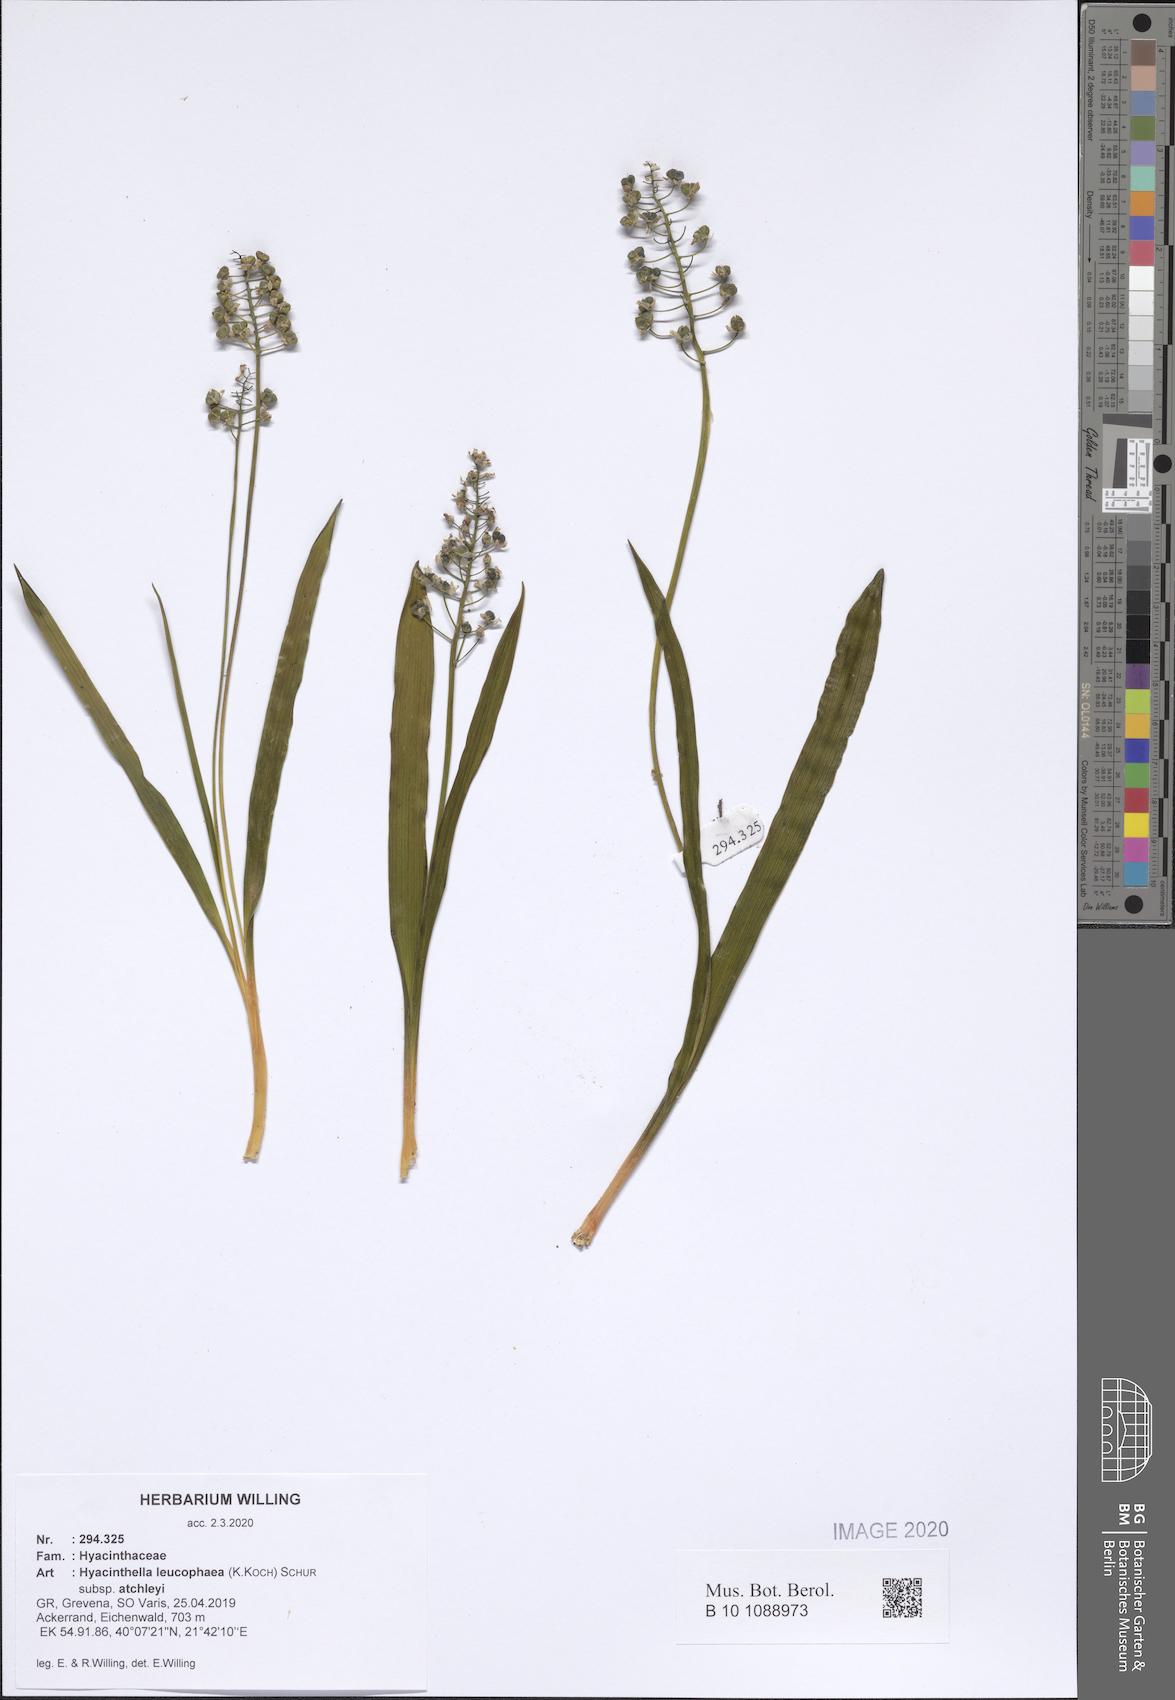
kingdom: Plantae
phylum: Tracheophyta
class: Liliopsida
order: Asparagales
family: Asparagaceae
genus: Hyacinthella
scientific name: Hyacinthella leucophaea
